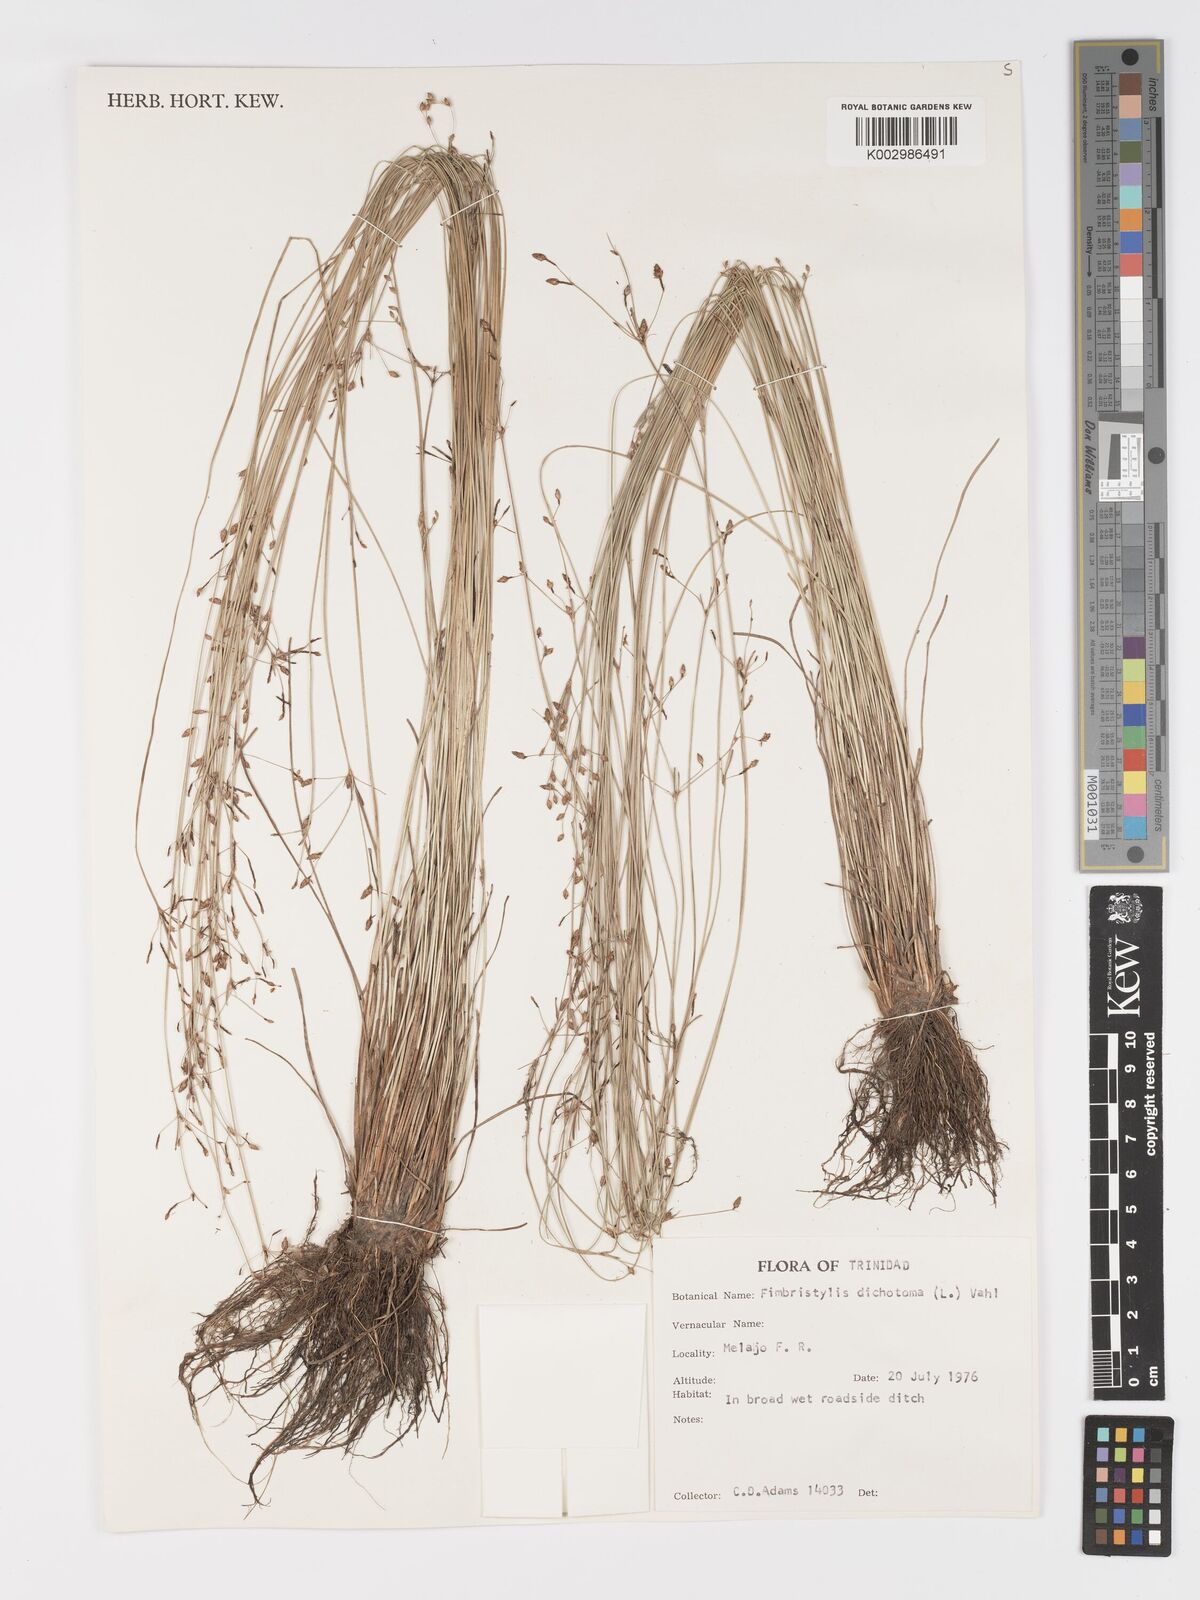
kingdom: Plantae
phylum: Tracheophyta
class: Liliopsida
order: Poales
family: Cyperaceae
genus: Fimbristylis
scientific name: Fimbristylis dichotoma
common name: Forked fimbry
